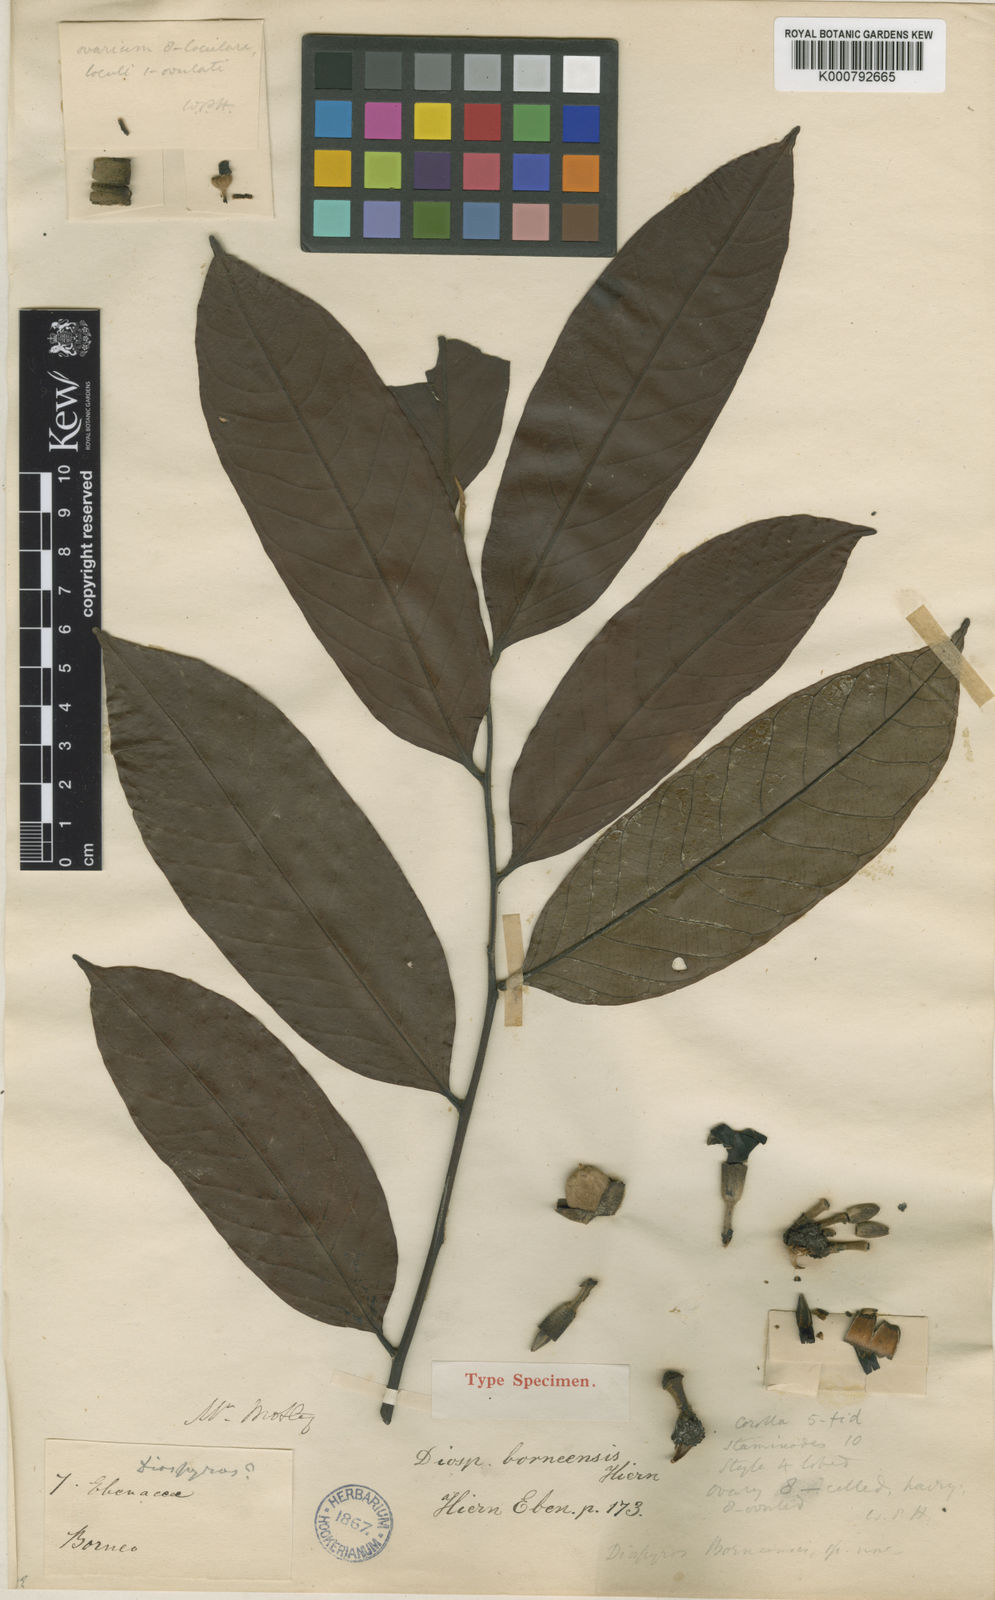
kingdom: Plantae
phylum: Tracheophyta
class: Magnoliopsida
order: Ericales
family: Ebenaceae
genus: Diospyros
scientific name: Diospyros borneensis
